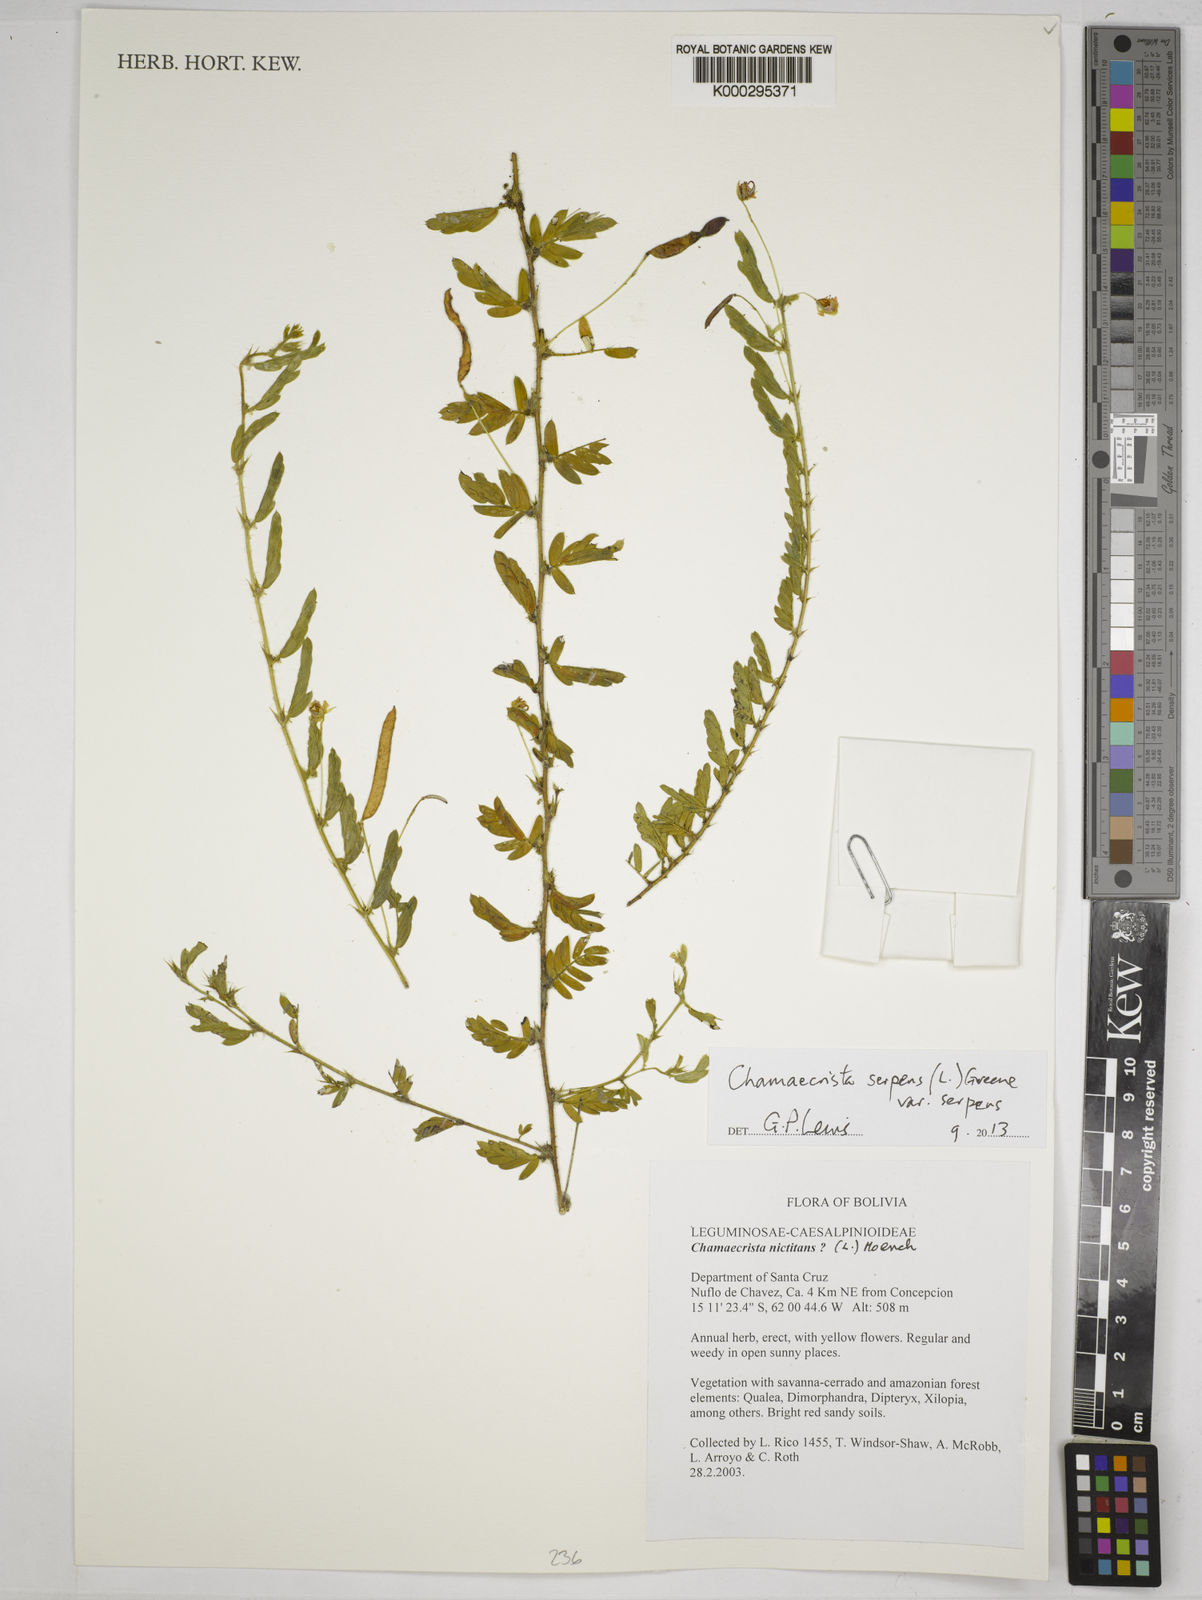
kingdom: Plantae
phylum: Tracheophyta
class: Magnoliopsida
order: Fabales
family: Fabaceae
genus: Chamaecrista
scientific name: Chamaecrista nictitans
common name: Sensitive cassia
